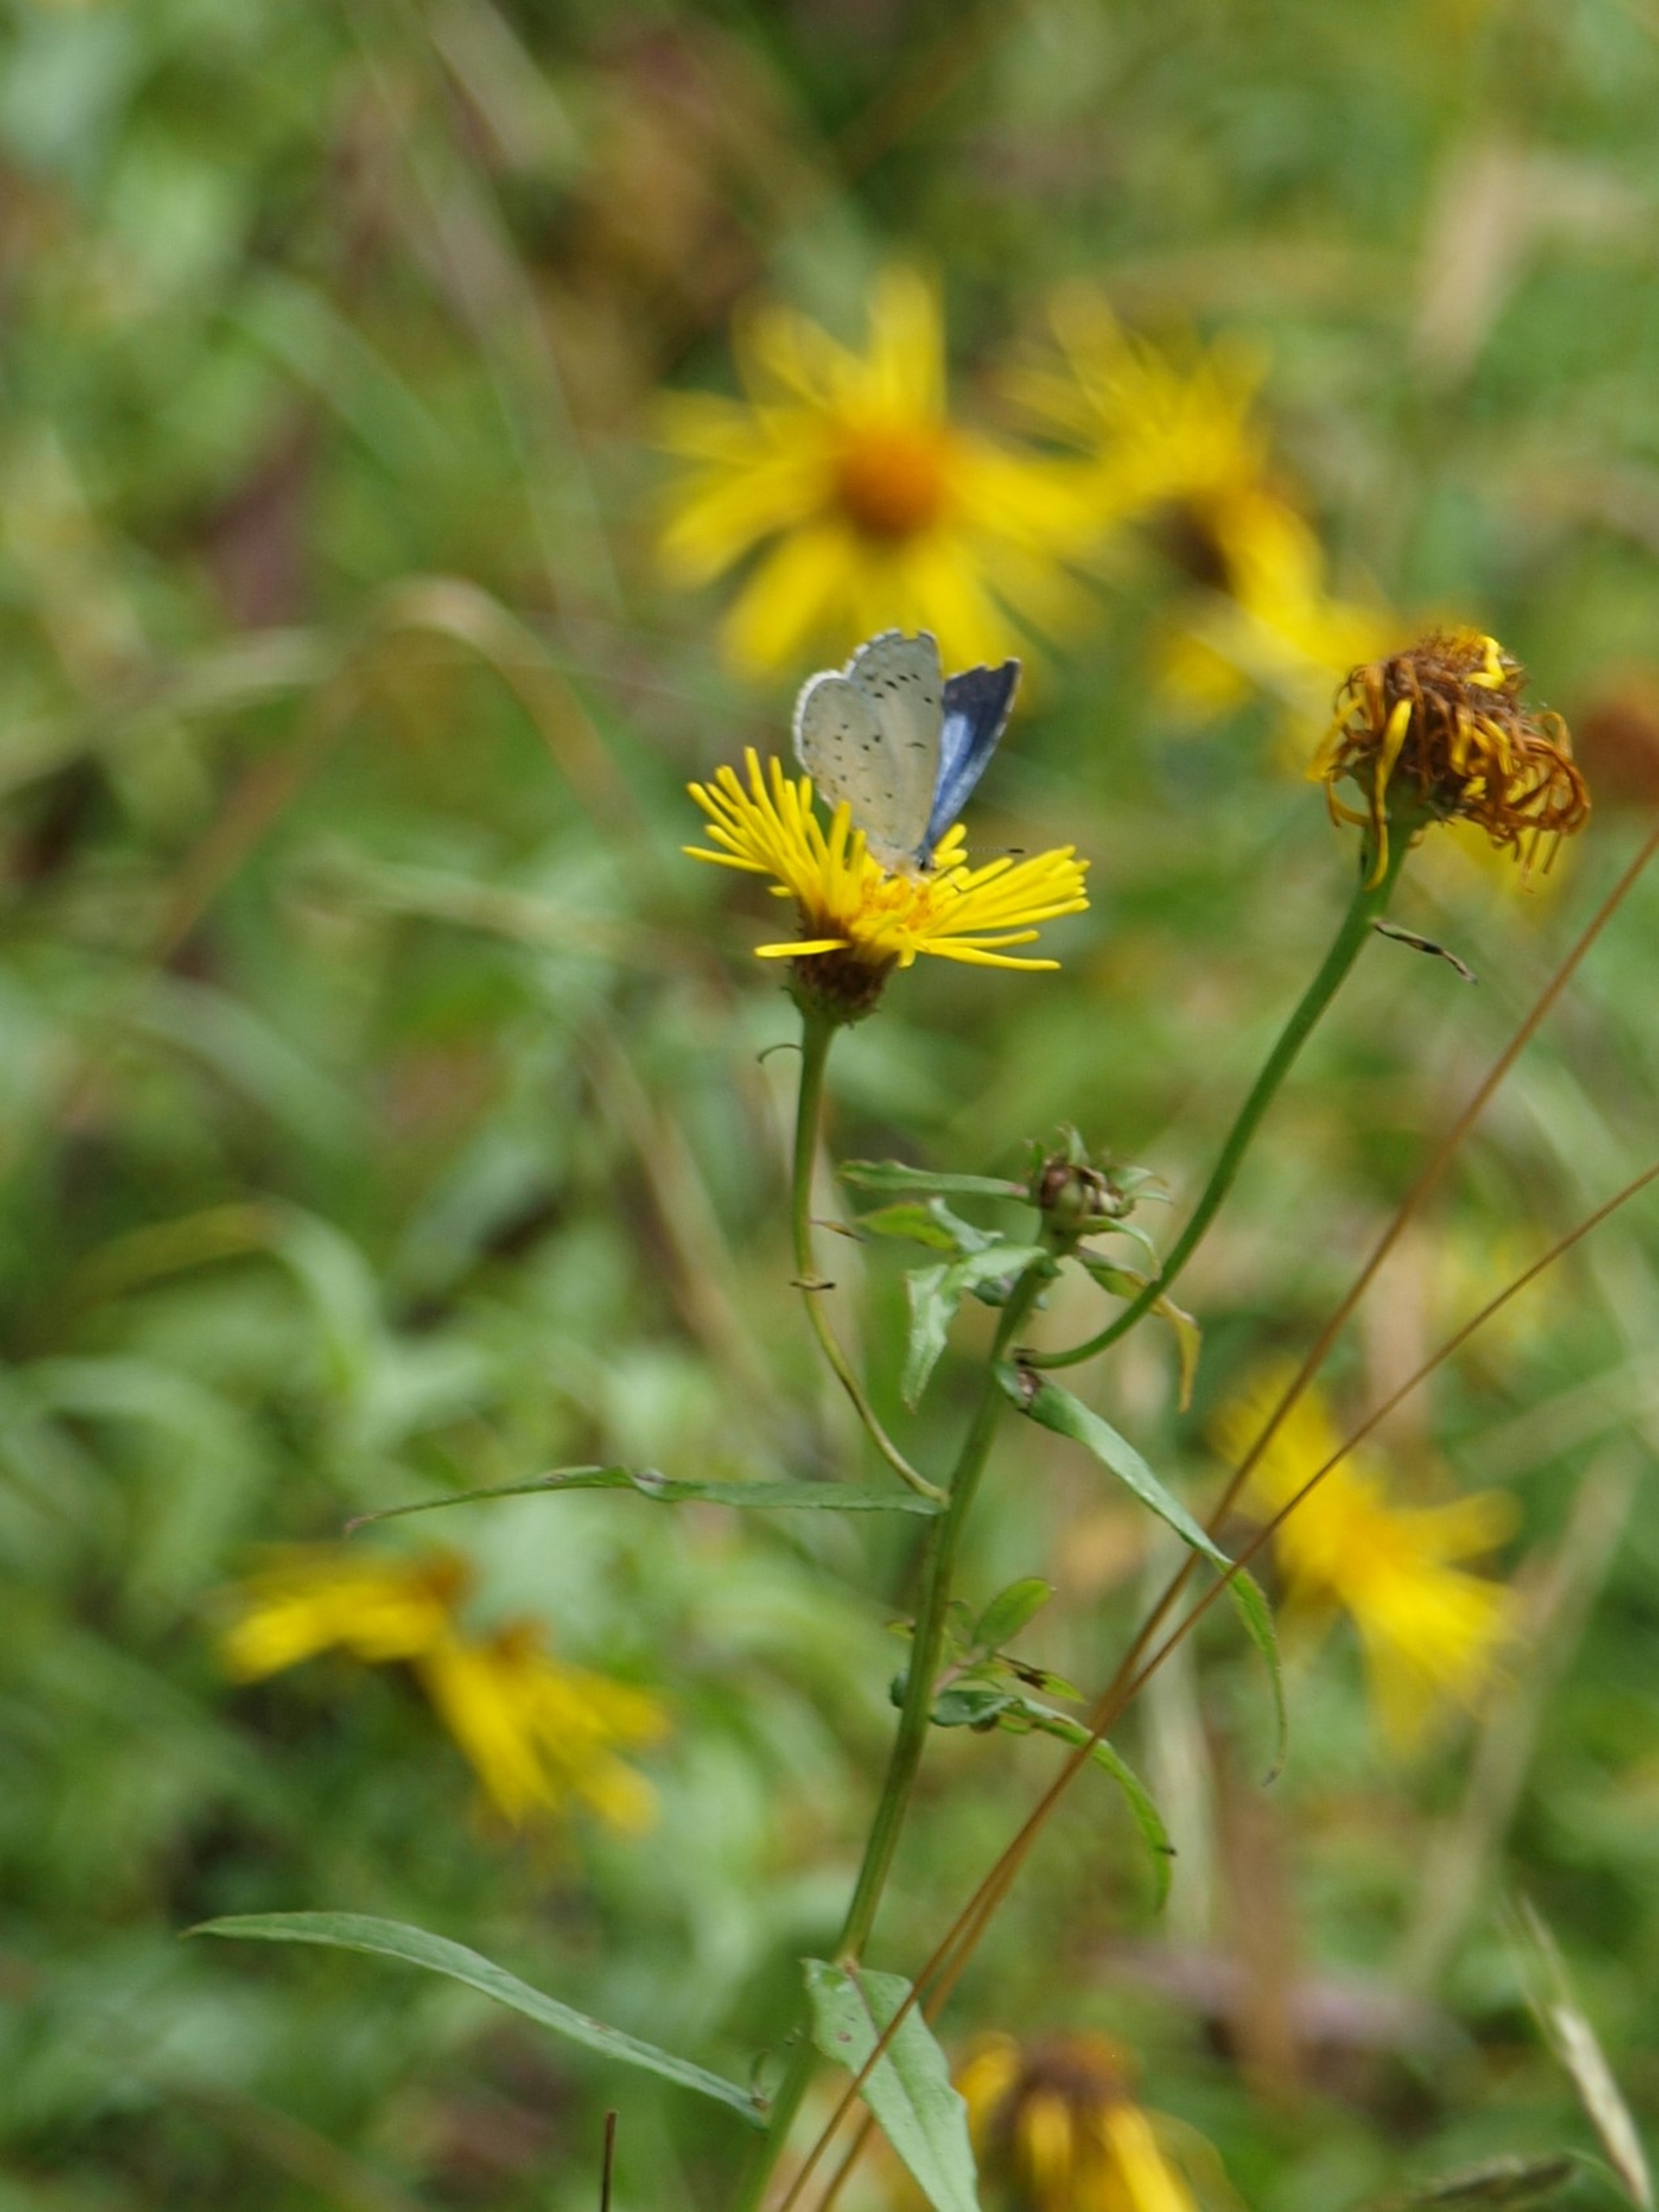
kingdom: Animalia
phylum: Arthropoda
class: Insecta
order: Lepidoptera
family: Lycaenidae
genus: Celastrina
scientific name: Celastrina argiolus
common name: Skovblåfugl
